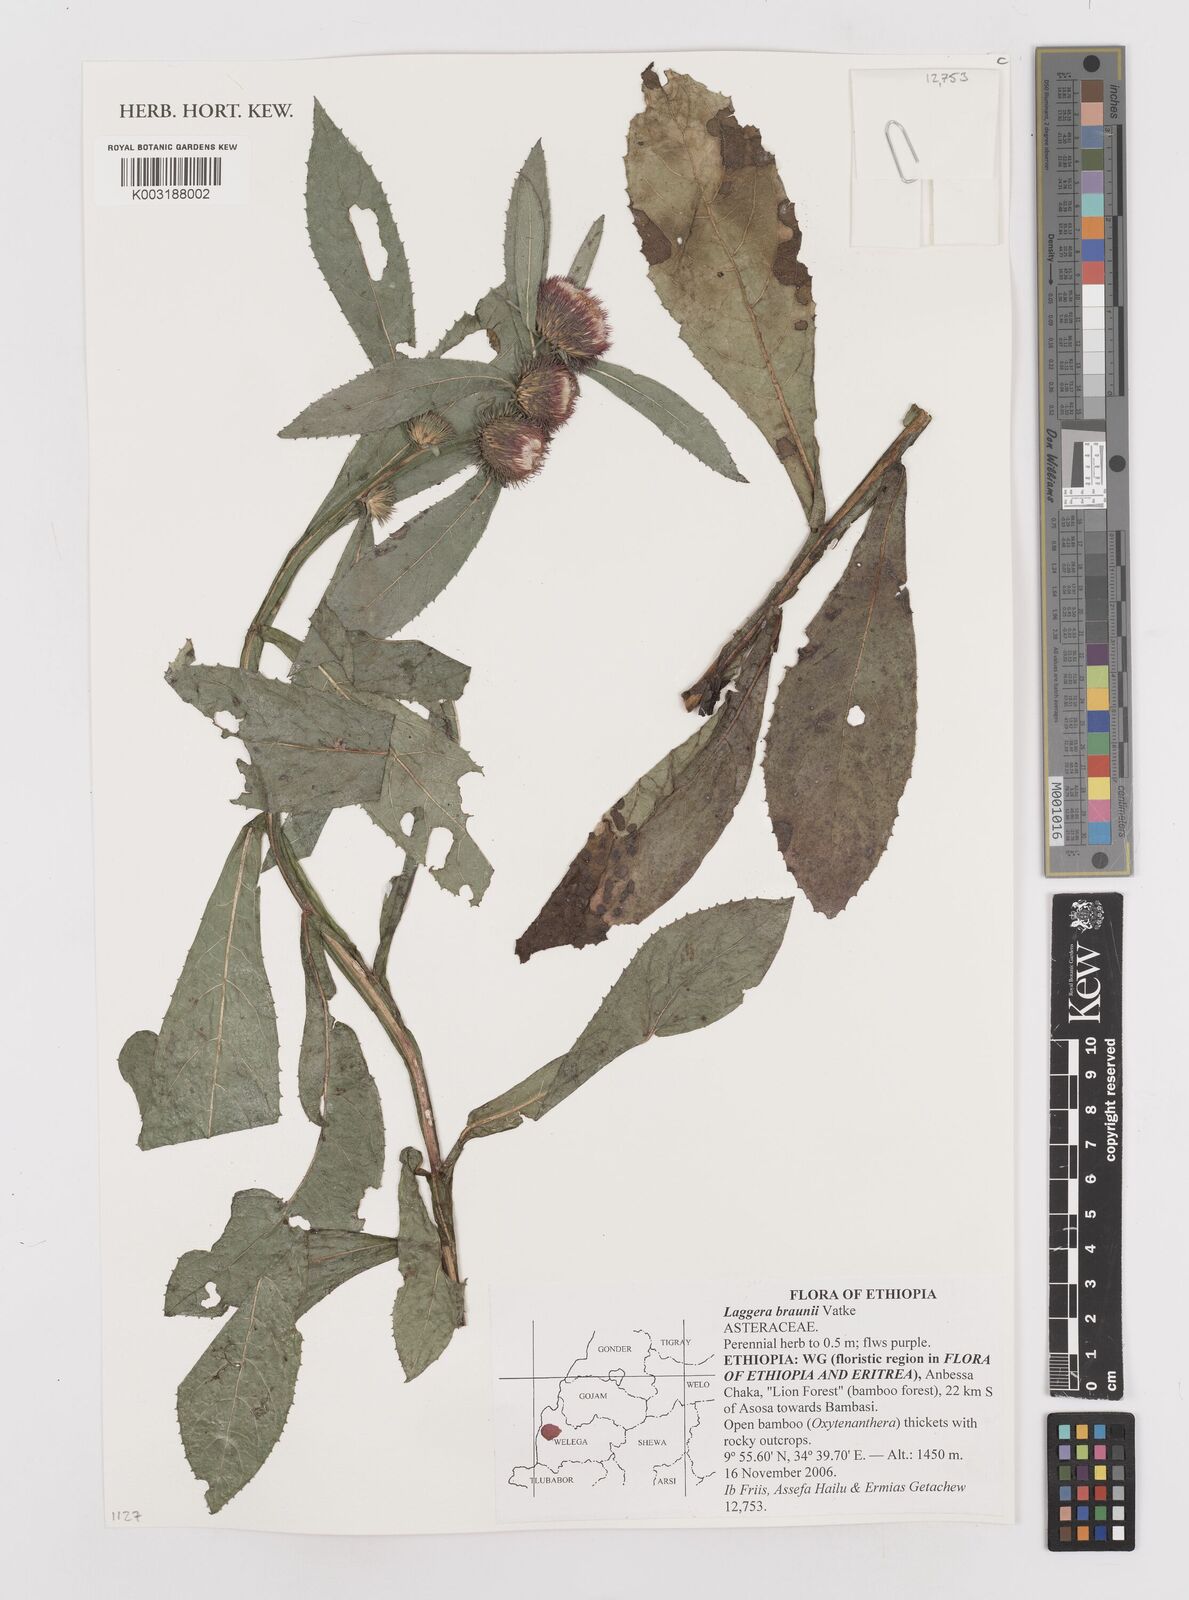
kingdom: Plantae
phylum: Tracheophyta
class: Magnoliopsida
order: Asterales
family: Asteraceae
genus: Laggera
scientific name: Laggera braunii
